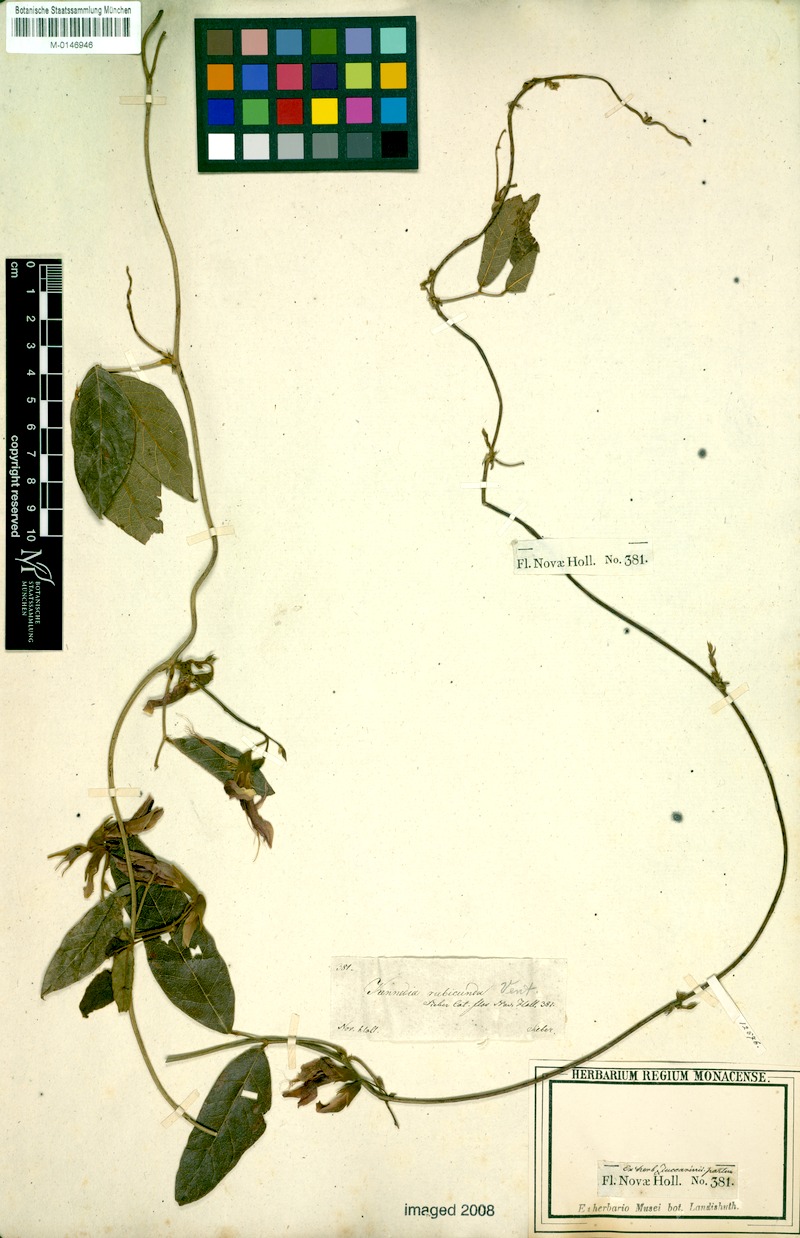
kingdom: Plantae
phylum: Tracheophyta
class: Magnoliopsida
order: Fabales
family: Fabaceae
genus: Kennedia
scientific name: Kennedia rubicunda
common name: Red kennedy-pea
